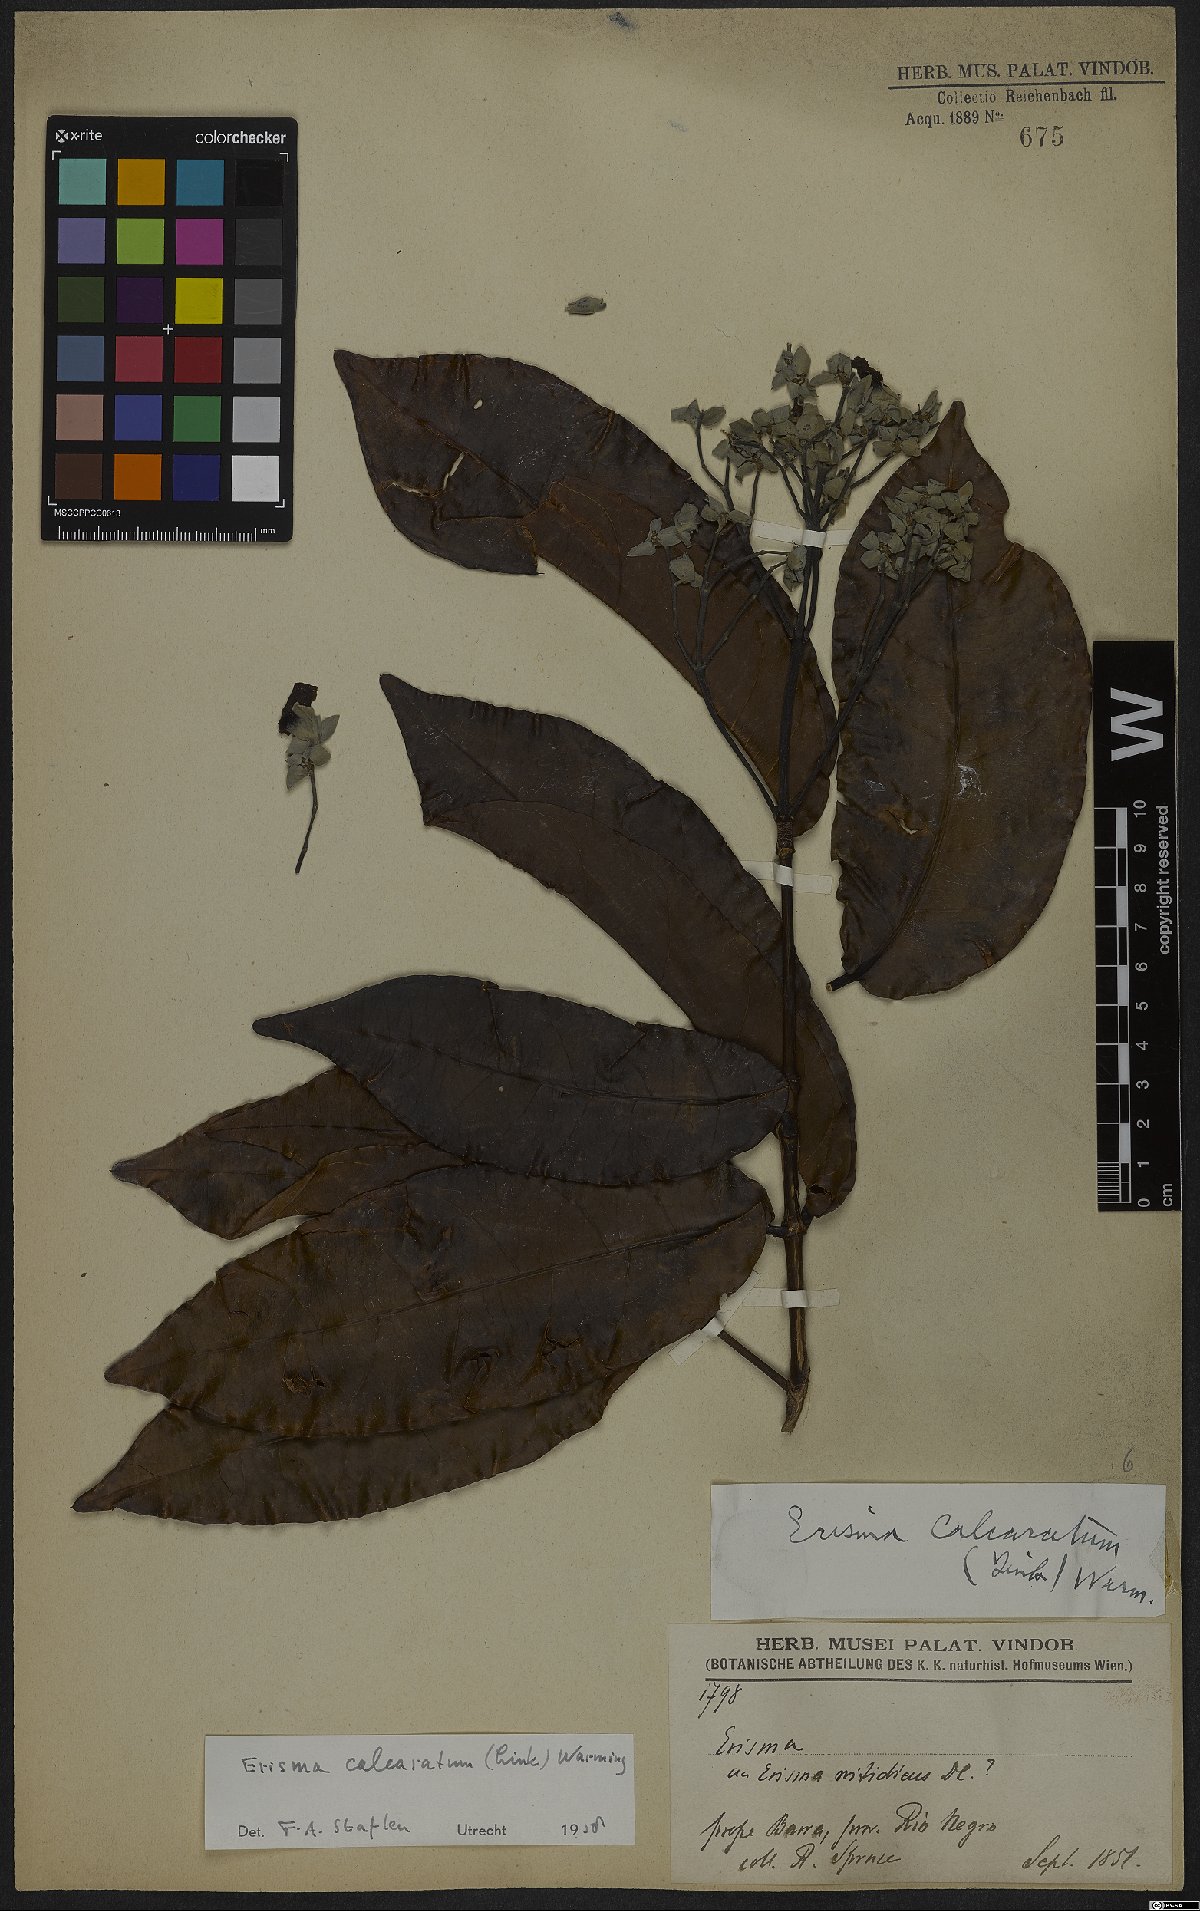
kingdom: Plantae
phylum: Tracheophyta
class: Magnoliopsida
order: Myrtales
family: Vochysiaceae
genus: Erisma
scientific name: Erisma calcaratum
